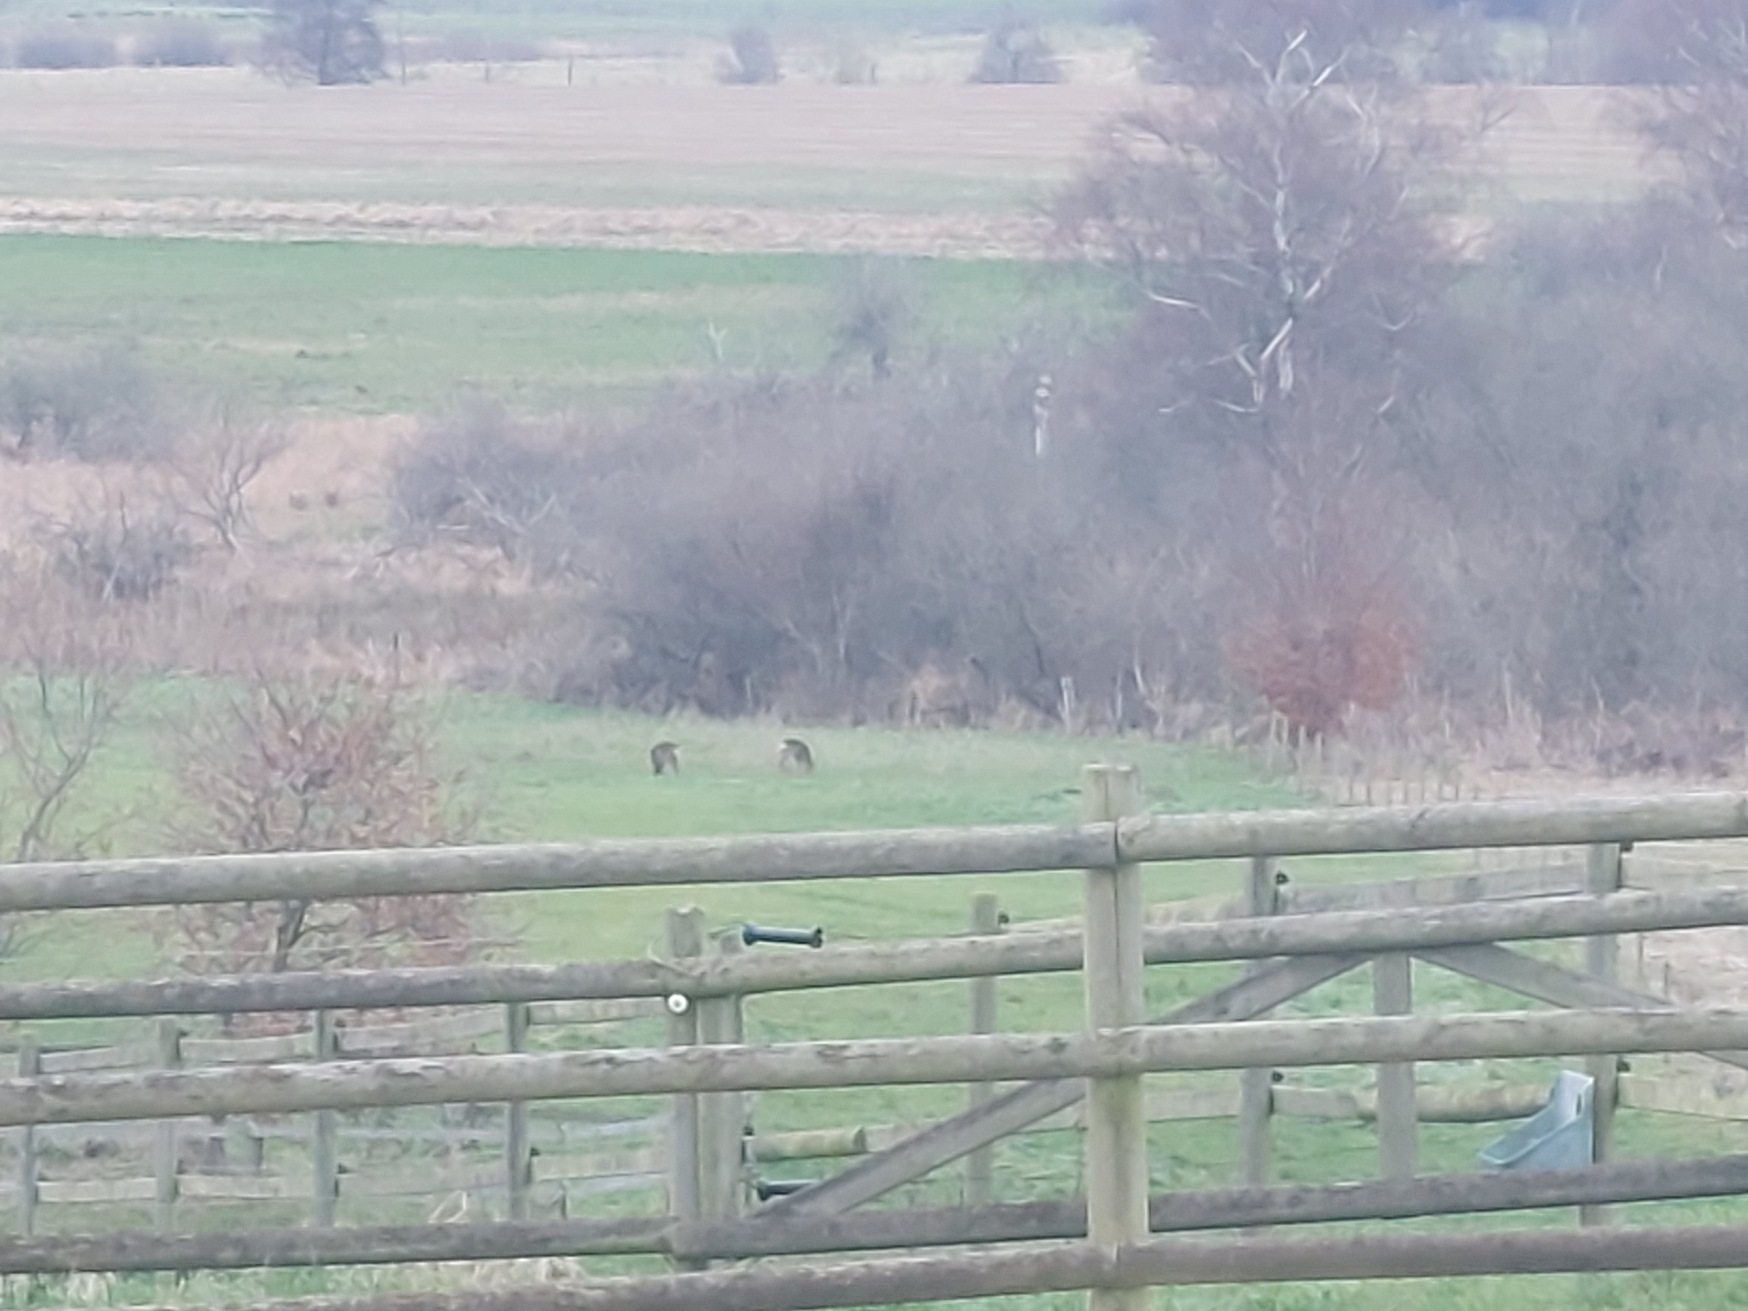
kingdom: Animalia
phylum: Chordata
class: Mammalia
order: Artiodactyla
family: Cervidae
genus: Capreolus
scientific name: Capreolus capreolus
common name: Rådyr
